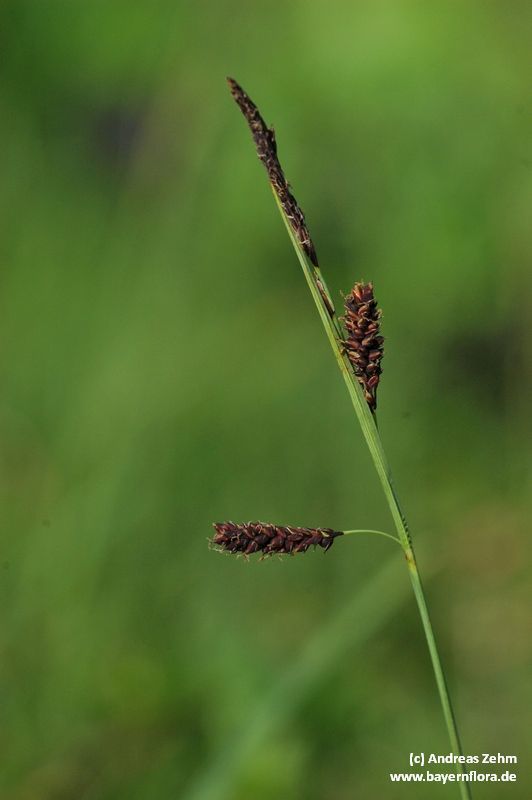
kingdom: Plantae
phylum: Tracheophyta
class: Liliopsida
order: Poales
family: Cyperaceae
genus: Carex
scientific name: Carex flacca
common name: Glaucous sedge
